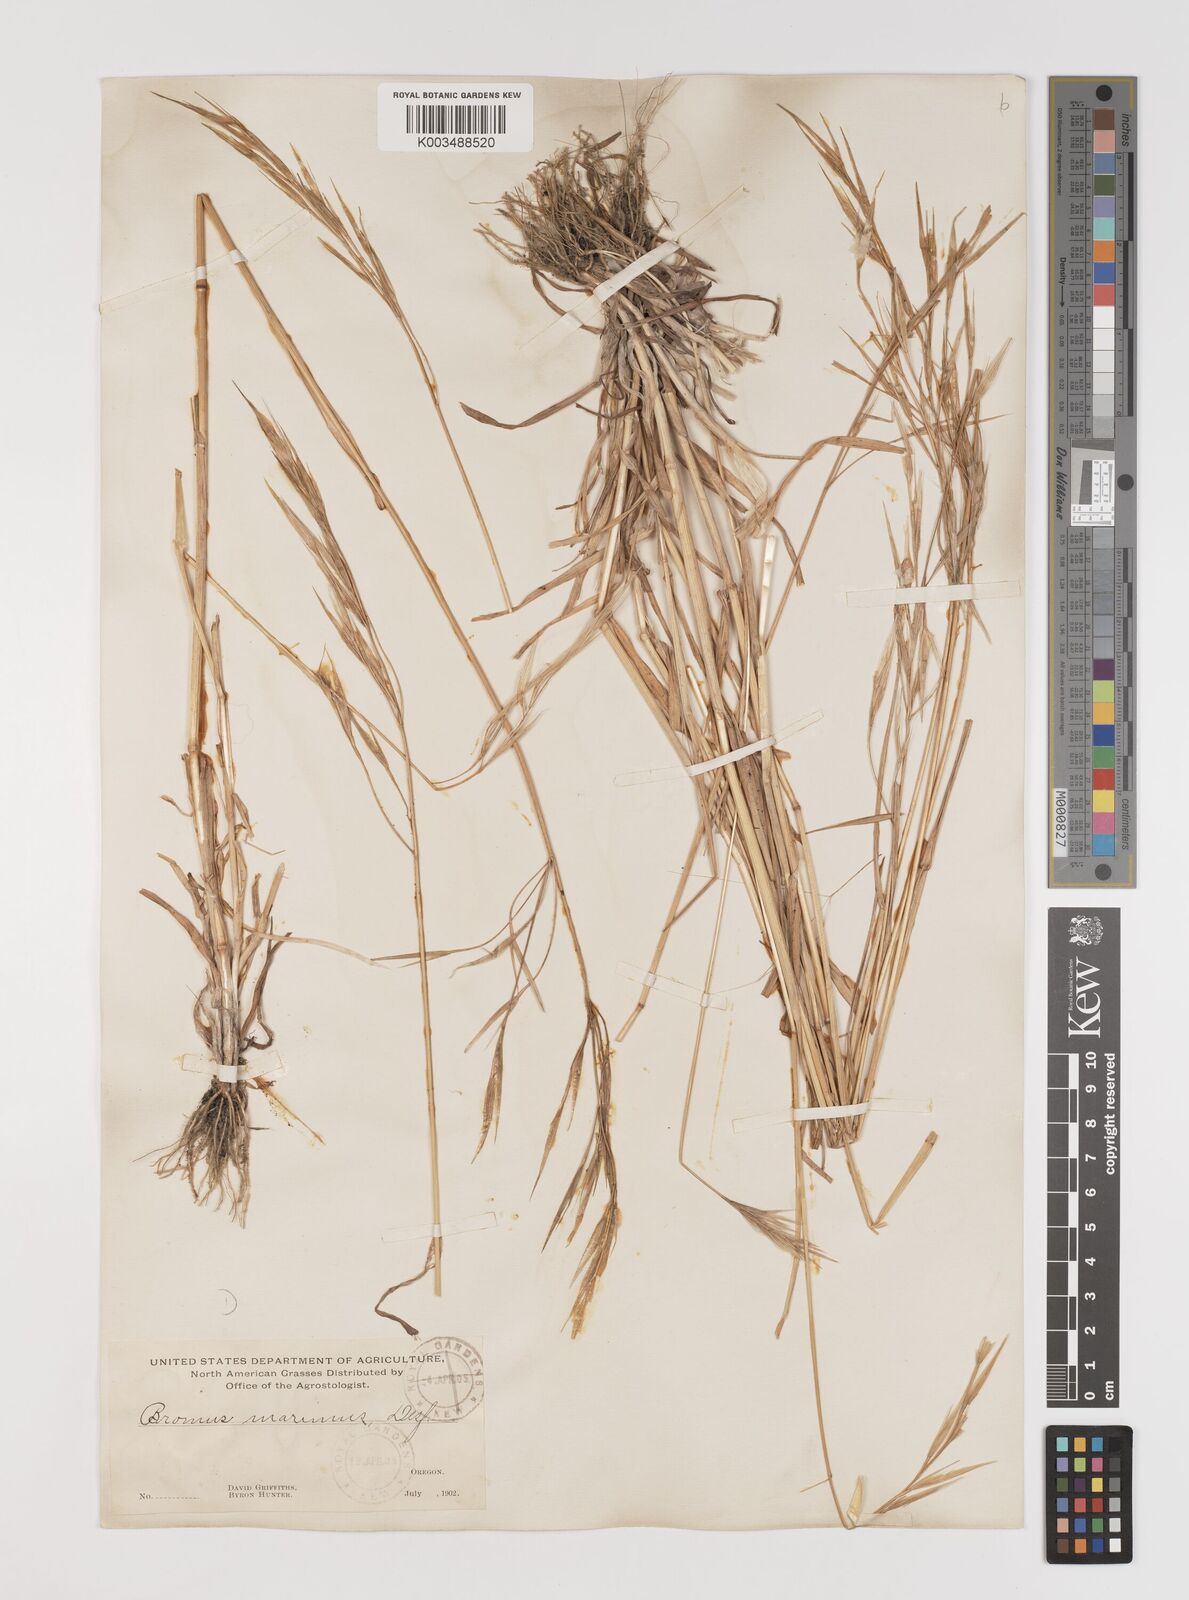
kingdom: Plantae
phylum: Tracheophyta
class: Liliopsida
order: Poales
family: Poaceae
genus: Bromus
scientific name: Bromus diandrus
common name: Ripgut brome
